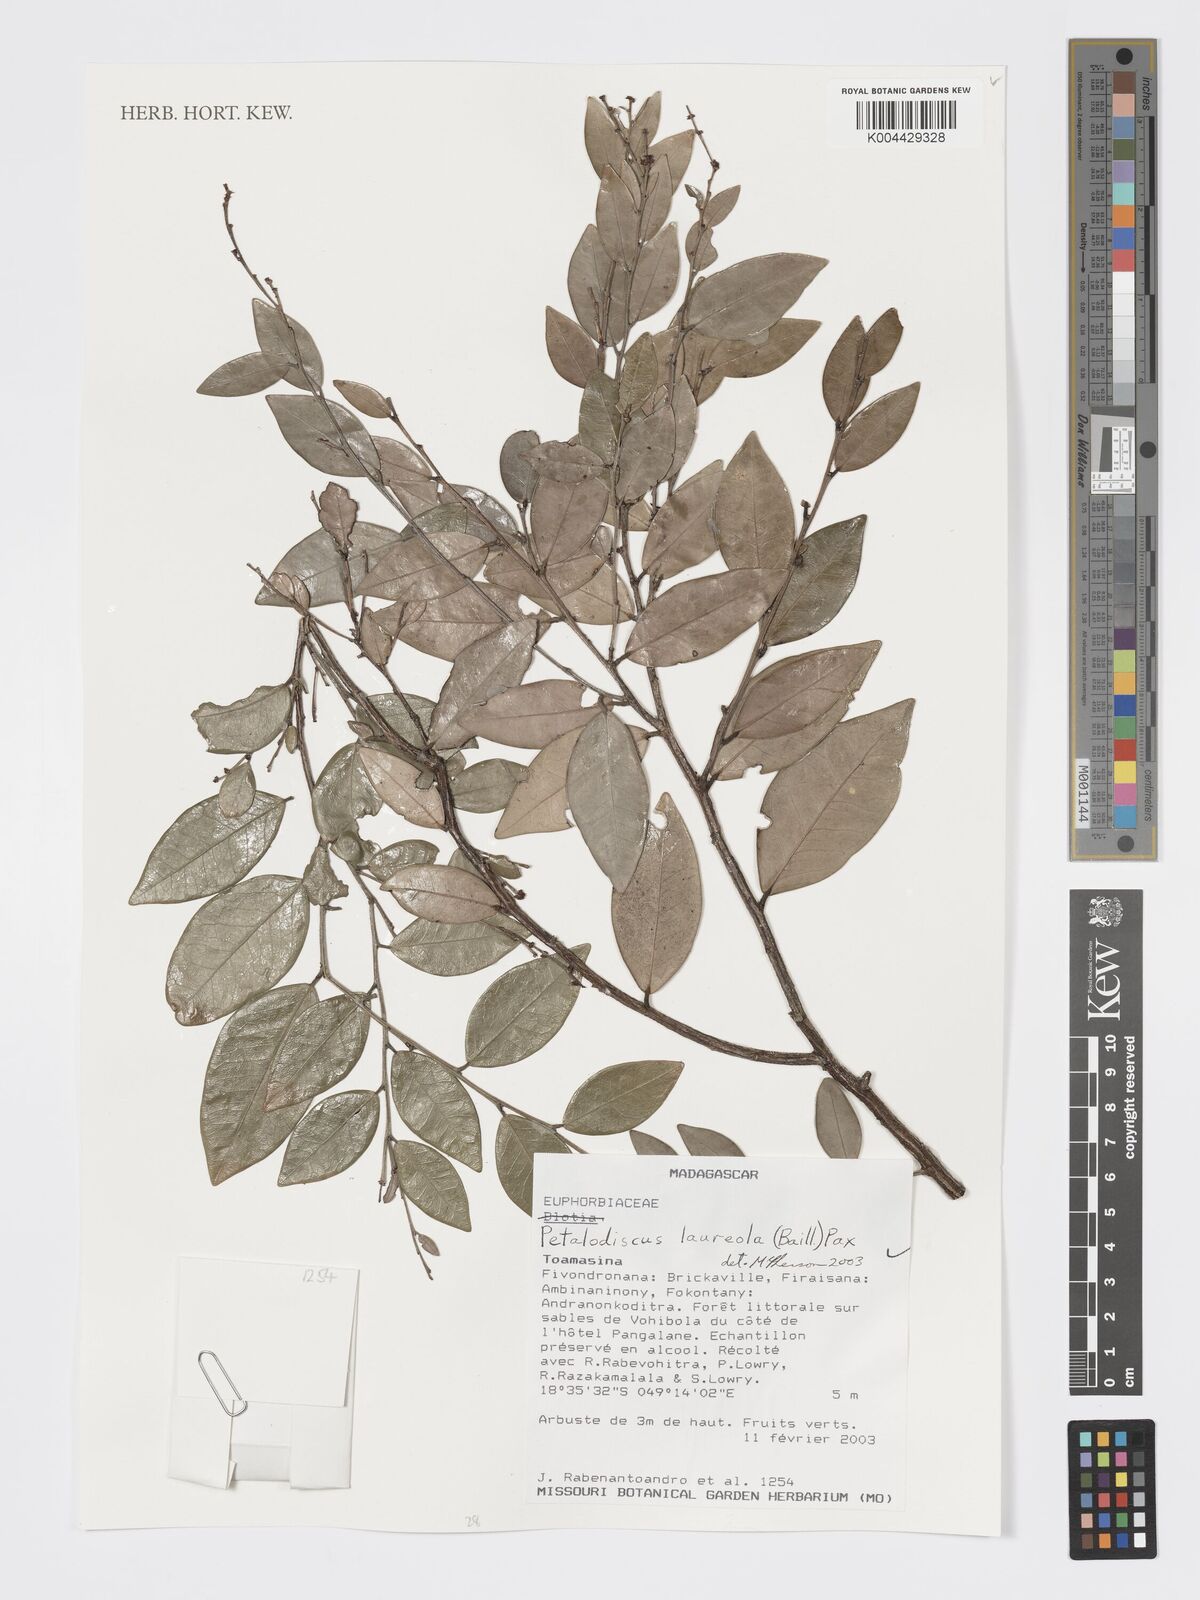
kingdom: Plantae
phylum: Tracheophyta
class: Magnoliopsida
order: Malpighiales
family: Phyllanthaceae
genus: Wielandia
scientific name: Wielandia laureola
